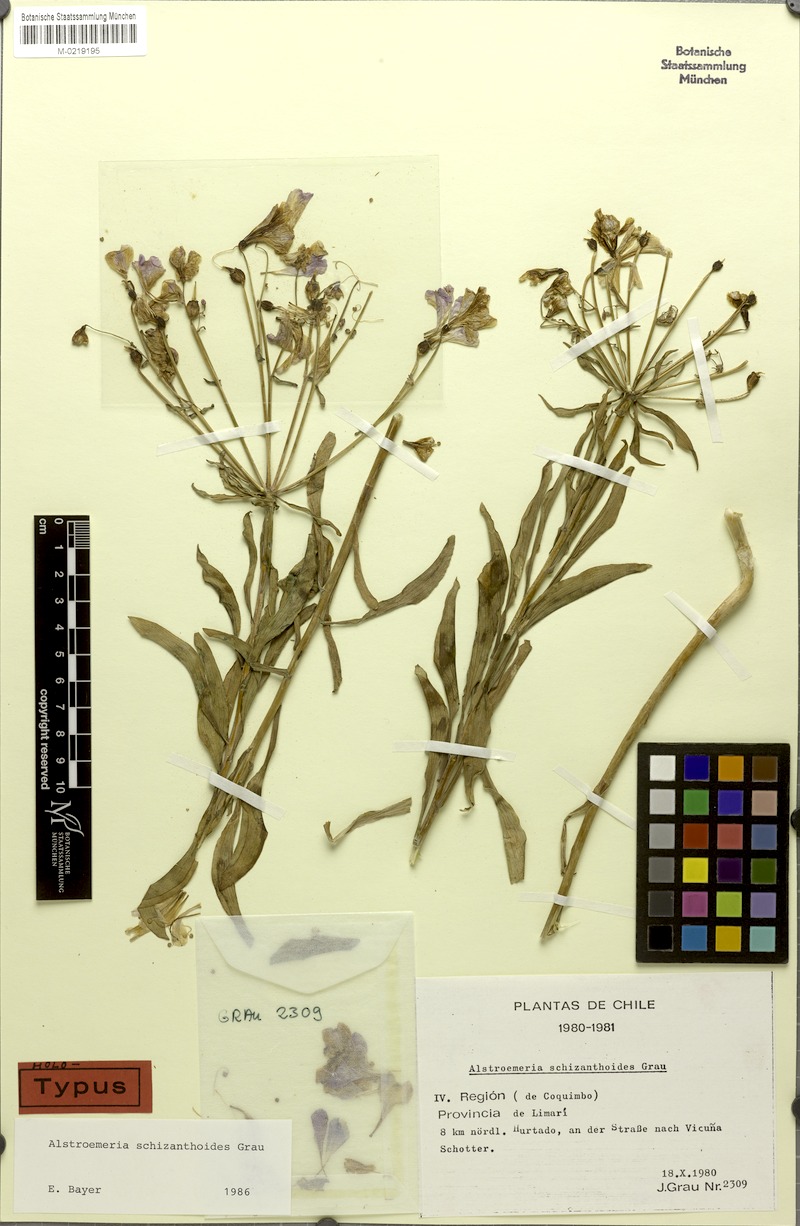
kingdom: Plantae
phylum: Tracheophyta
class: Liliopsida
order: Liliales
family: Alstroemeriaceae
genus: Alstroemeria
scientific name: Alstroemeria schizanthoides
